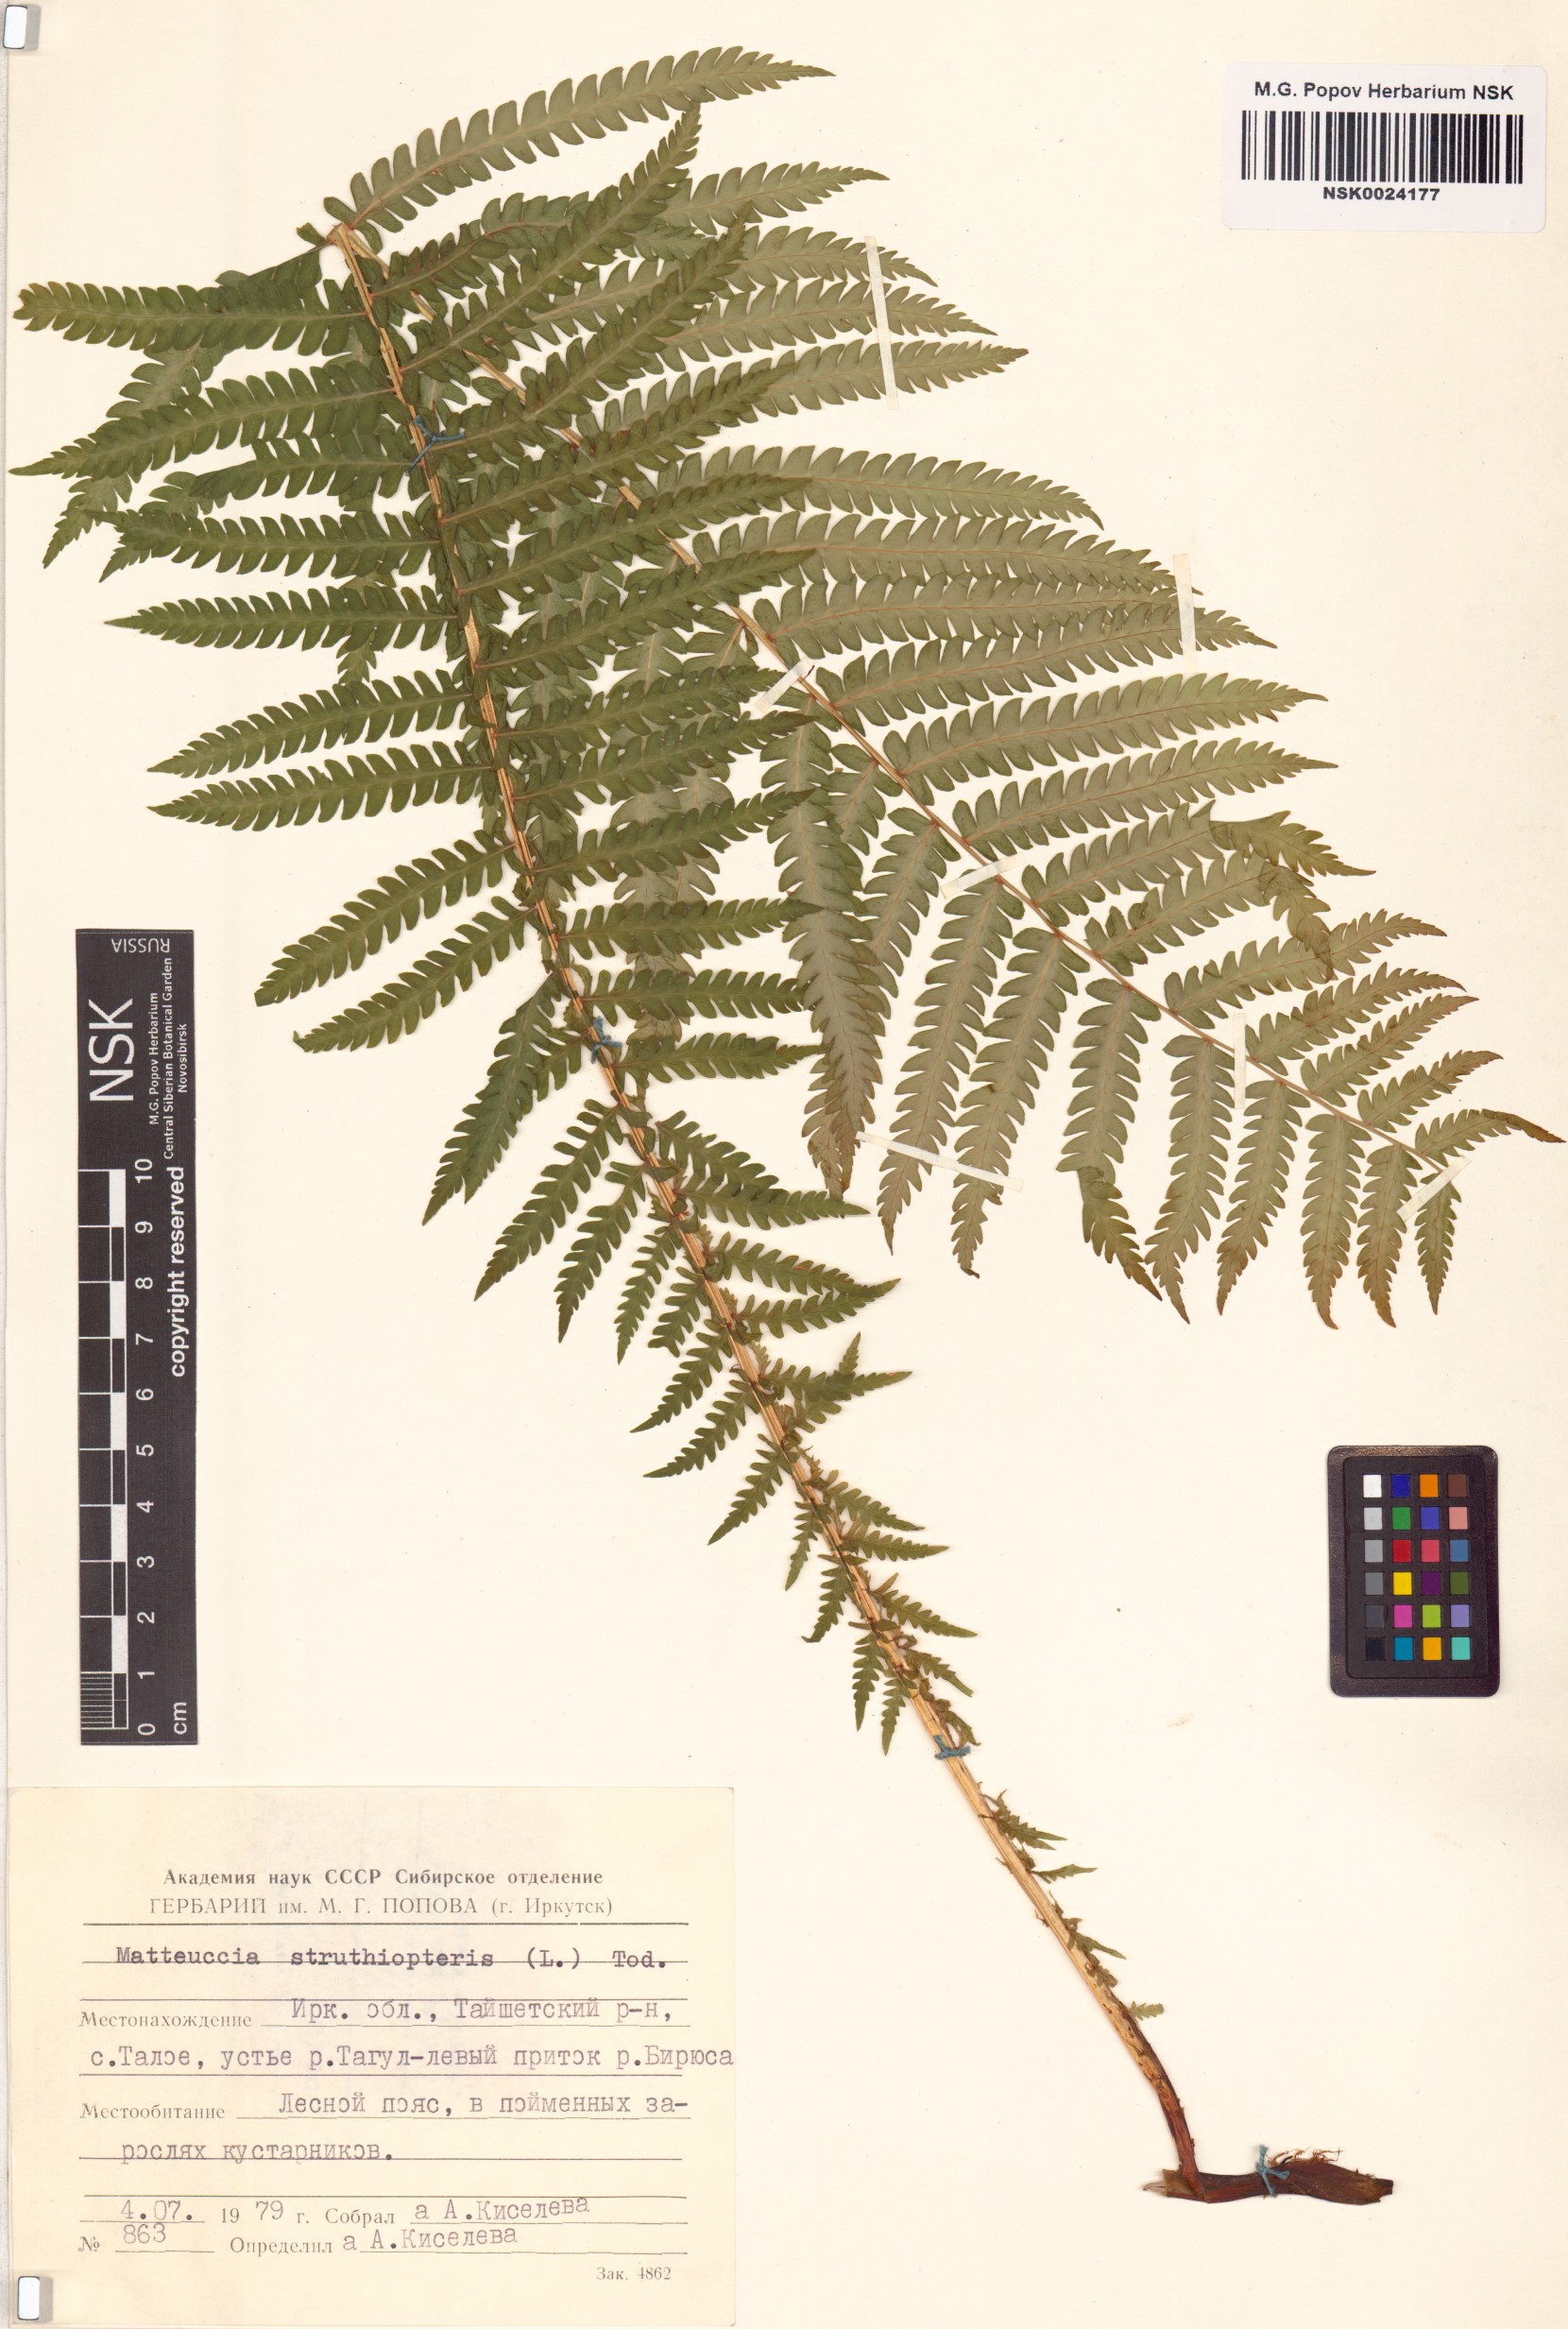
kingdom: Plantae
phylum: Tracheophyta
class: Polypodiopsida
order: Polypodiales
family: Onocleaceae
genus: Matteuccia
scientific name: Matteuccia struthiopteris
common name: Ostrich fern
